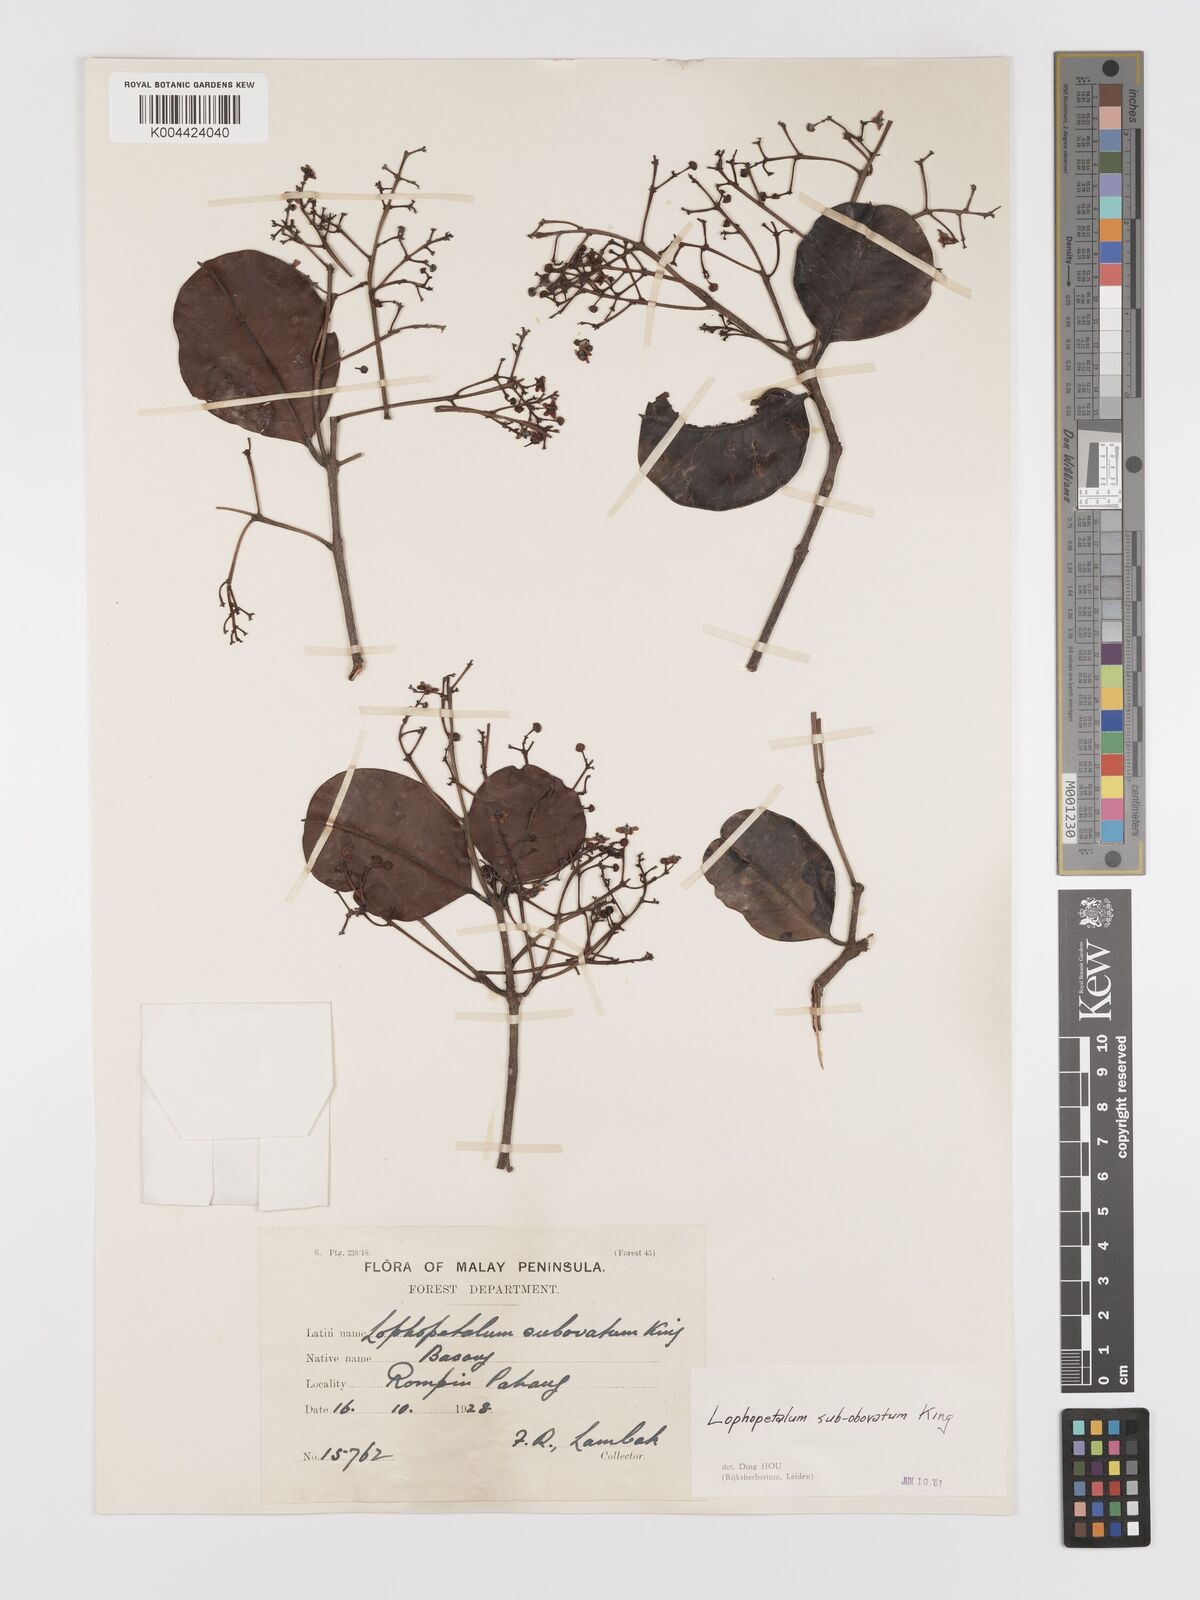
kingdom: Plantae
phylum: Tracheophyta
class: Magnoliopsida
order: Celastrales
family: Celastraceae
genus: Lophopetalum
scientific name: Lophopetalum subobovatum
